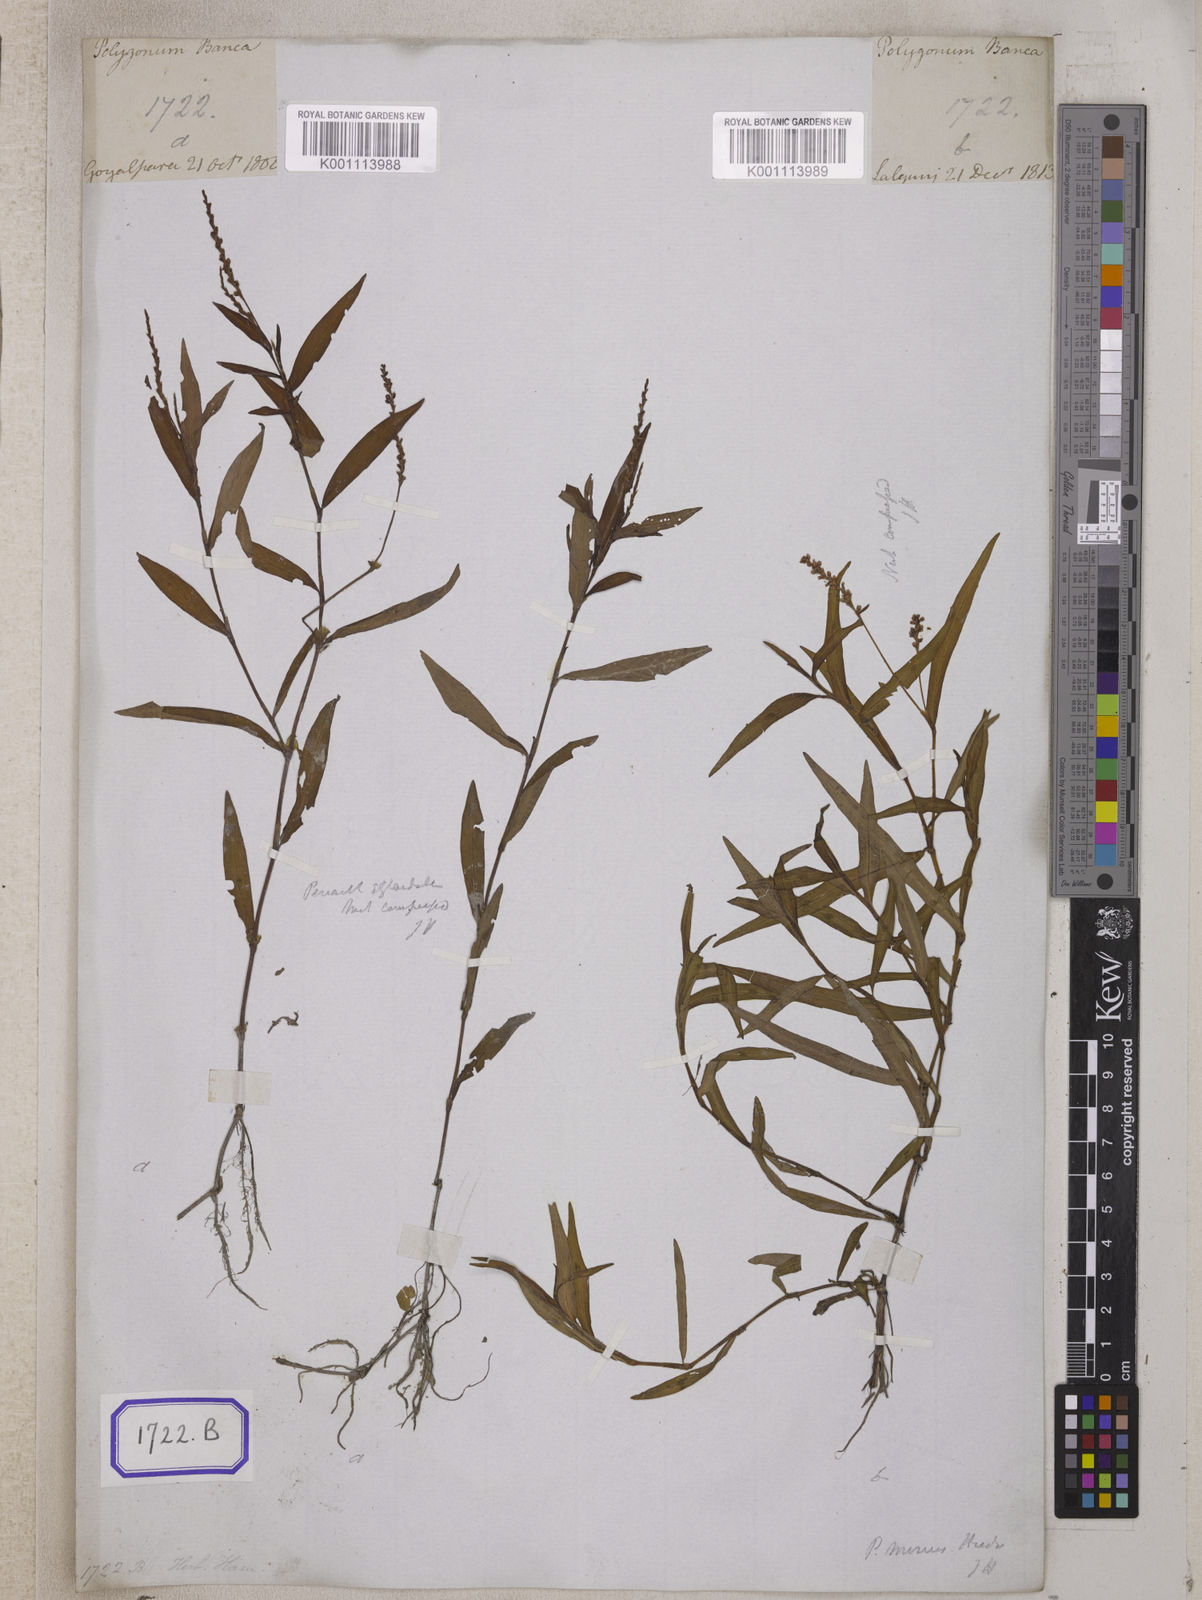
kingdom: Plantae
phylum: Tracheophyta
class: Magnoliopsida
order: Caryophyllales
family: Polygonaceae
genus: Polygonum
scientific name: Polygonum
